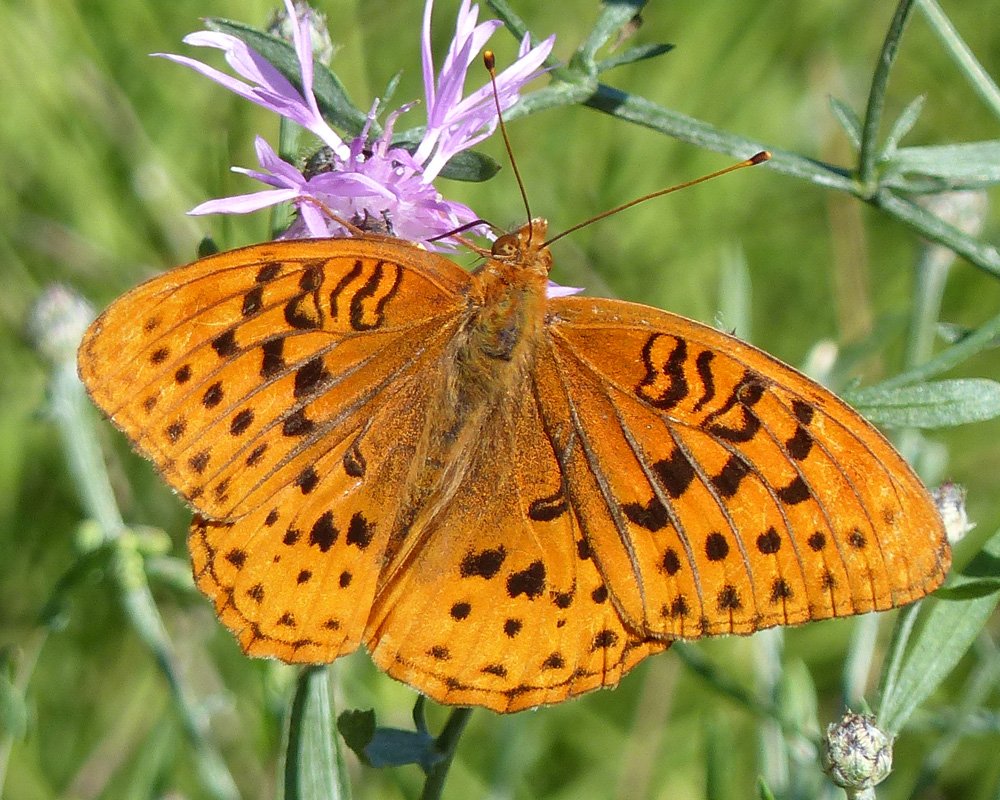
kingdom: Animalia
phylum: Arthropoda
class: Insecta
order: Lepidoptera
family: Nymphalidae
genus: Speyeria
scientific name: Speyeria cybele
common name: Great Spangled Fritillary
